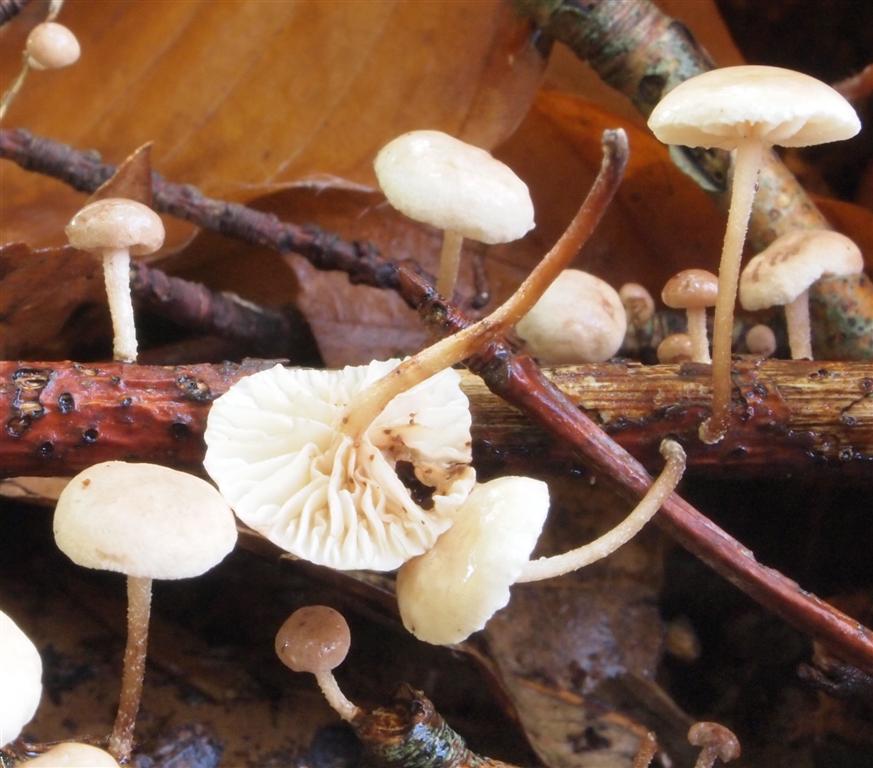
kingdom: Fungi
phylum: Basidiomycota
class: Agaricomycetes
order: Agaricales
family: Omphalotaceae
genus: Collybiopsis
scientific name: Collybiopsis ramealis
